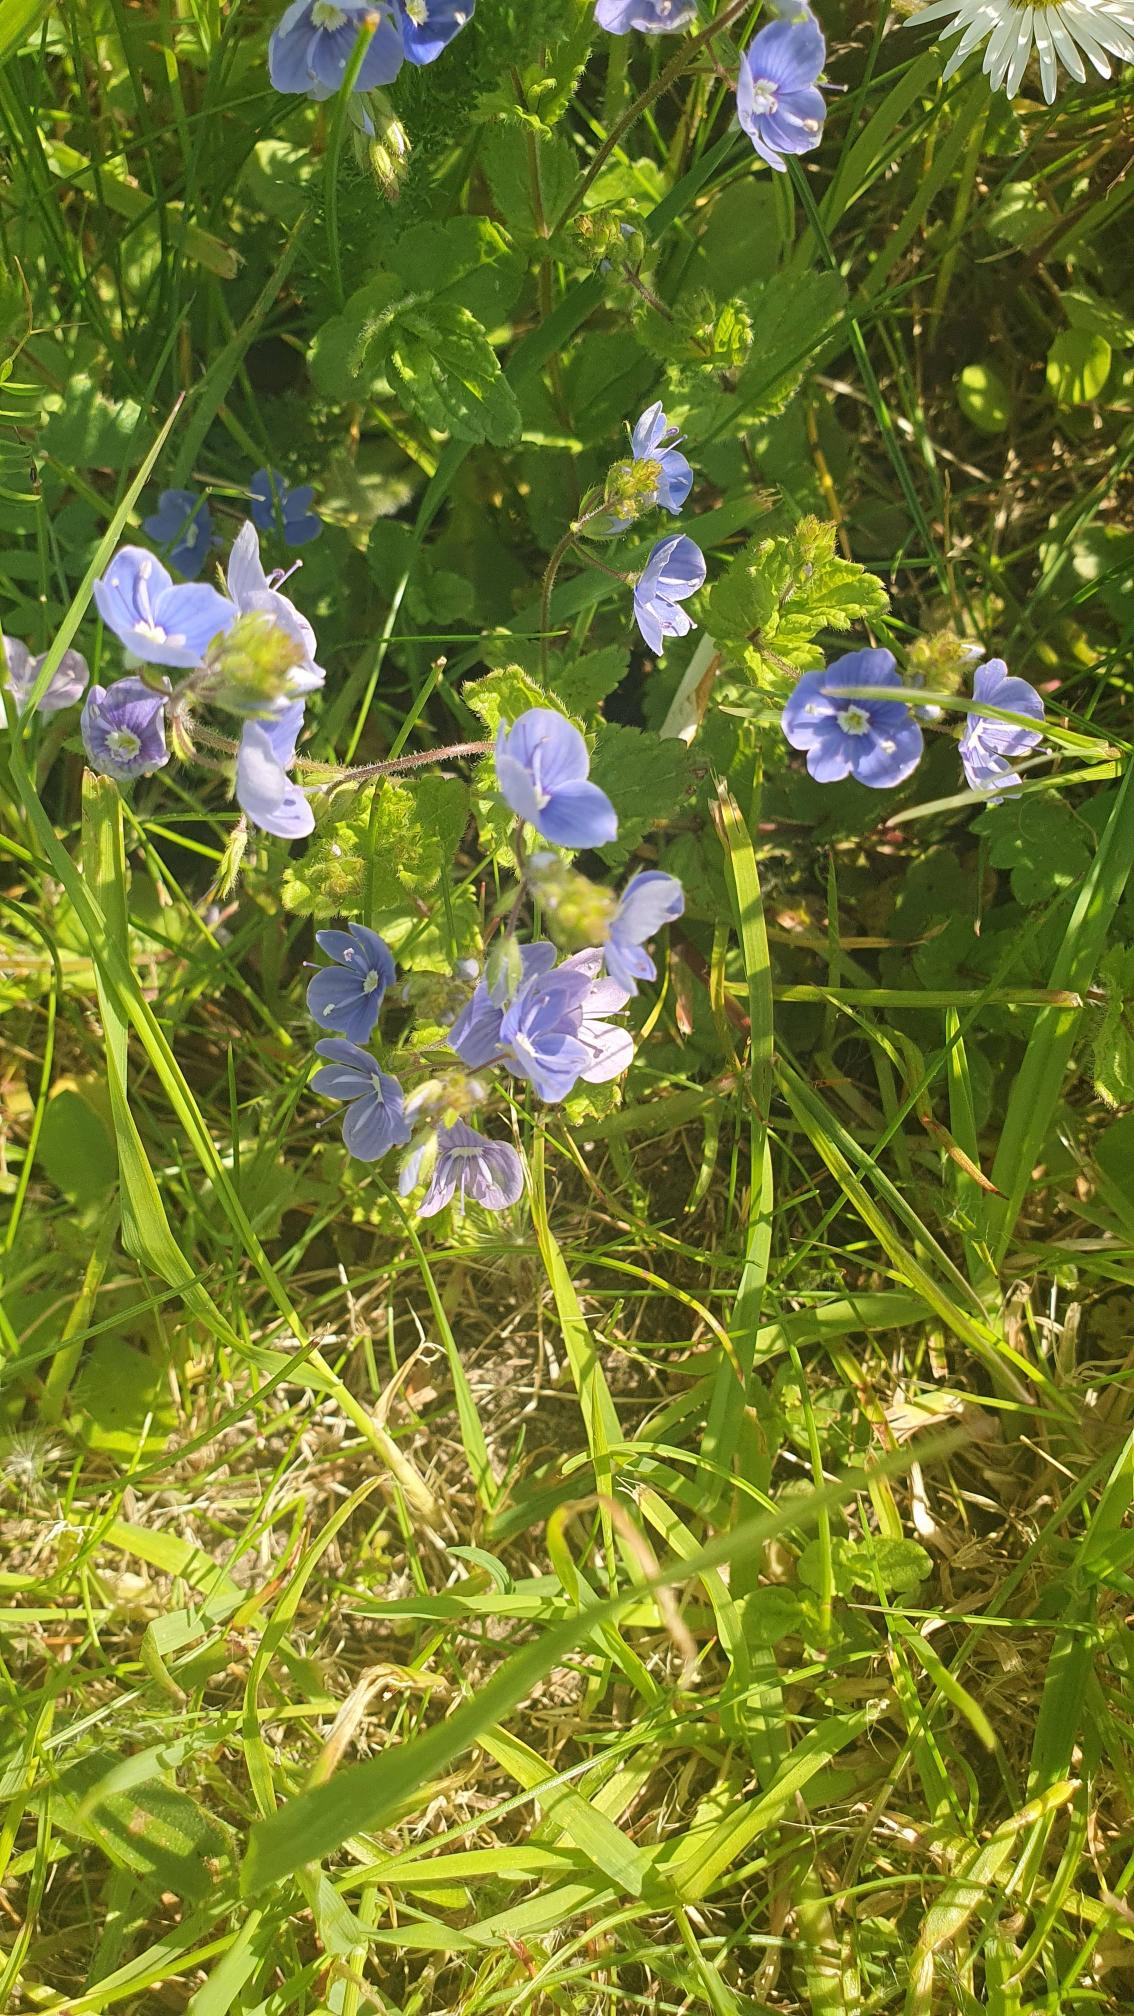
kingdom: Plantae
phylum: Tracheophyta
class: Magnoliopsida
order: Lamiales
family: Plantaginaceae
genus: Veronica
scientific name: Veronica chamaedrys
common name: Tveskægget ærenpris
